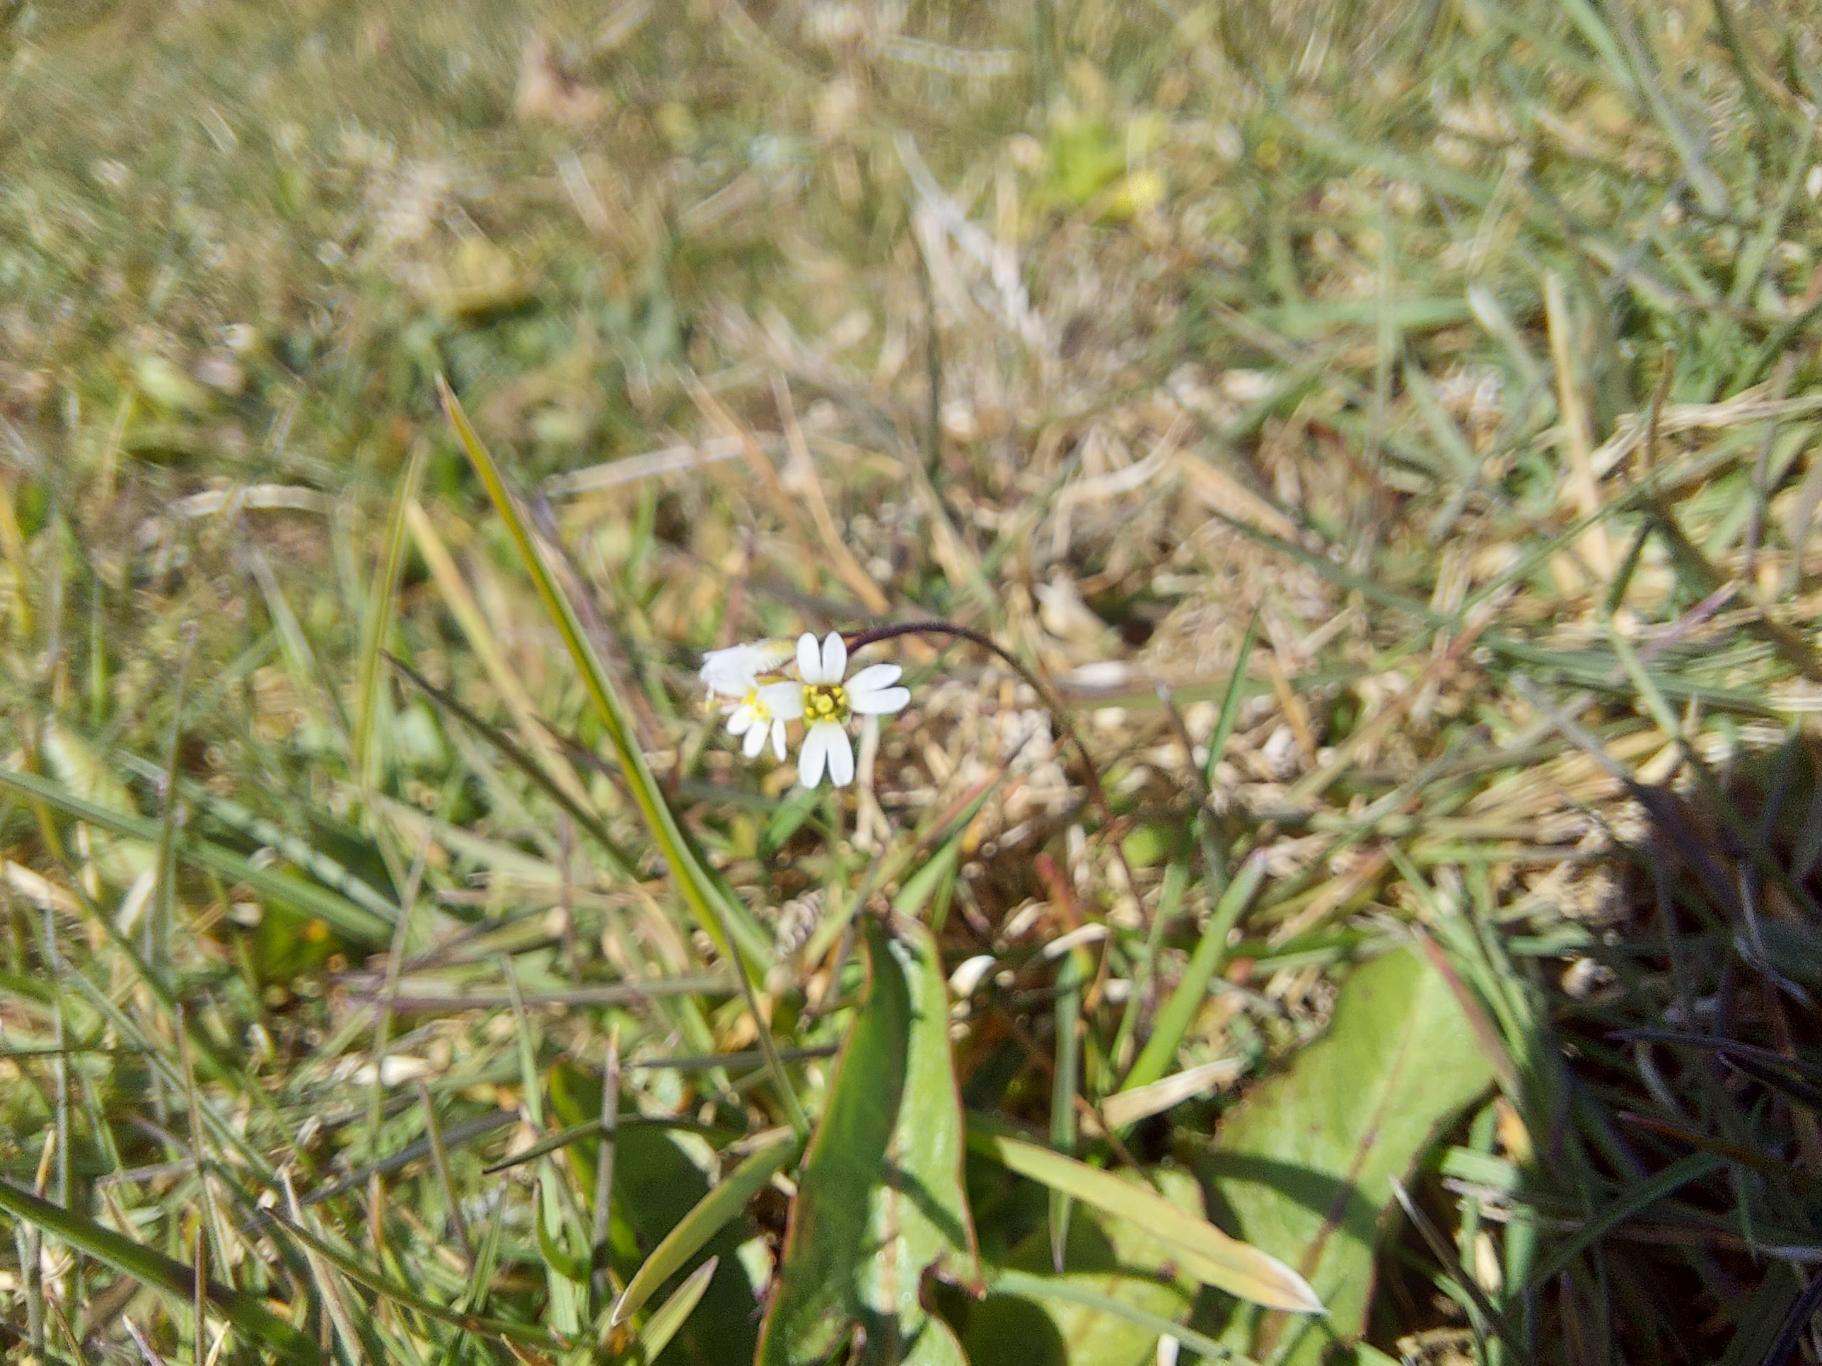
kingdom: Plantae
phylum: Tracheophyta
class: Magnoliopsida
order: Brassicales
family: Brassicaceae
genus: Draba
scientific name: Draba verna
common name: Vår-gæslingeblomst
